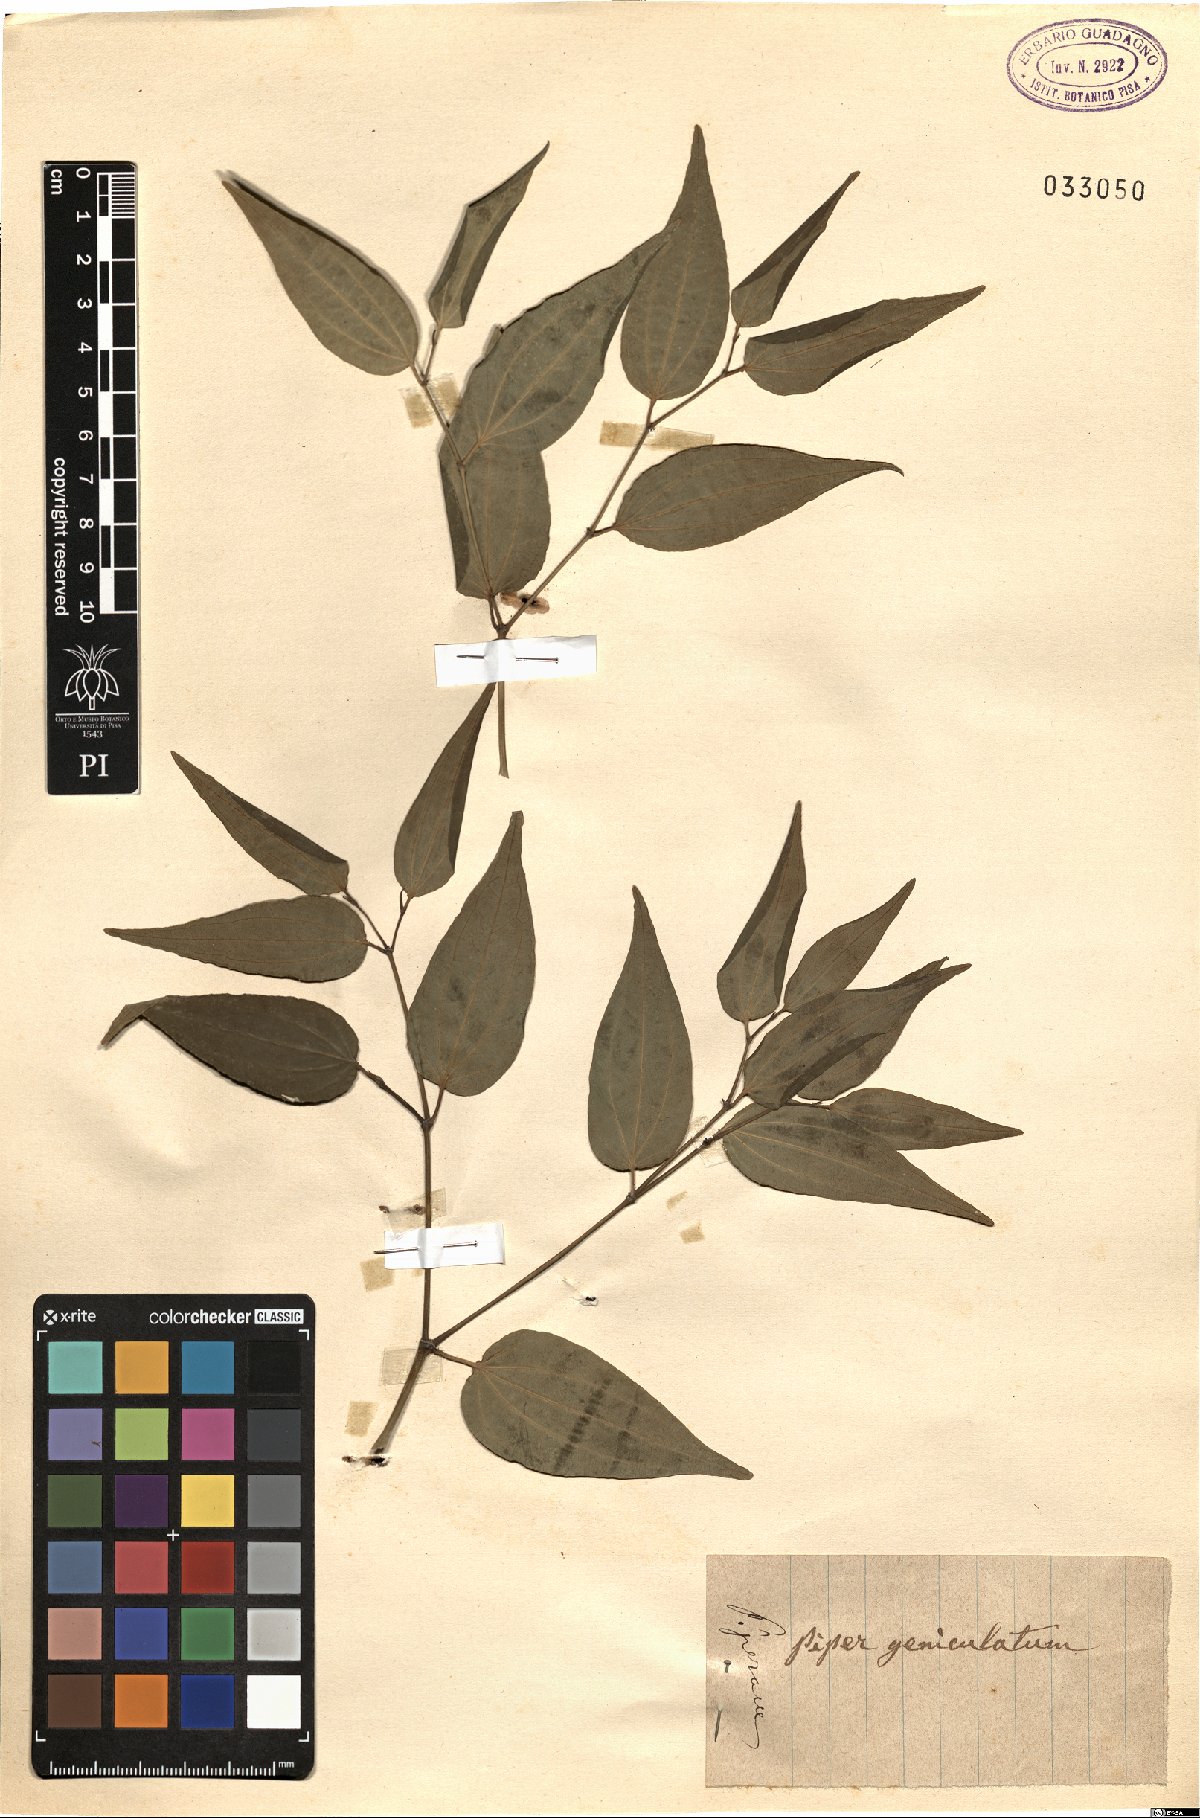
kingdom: Plantae
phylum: Tracheophyta
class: Magnoliopsida
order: Piperales
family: Piperaceae
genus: Piper
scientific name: Piper arboreum
